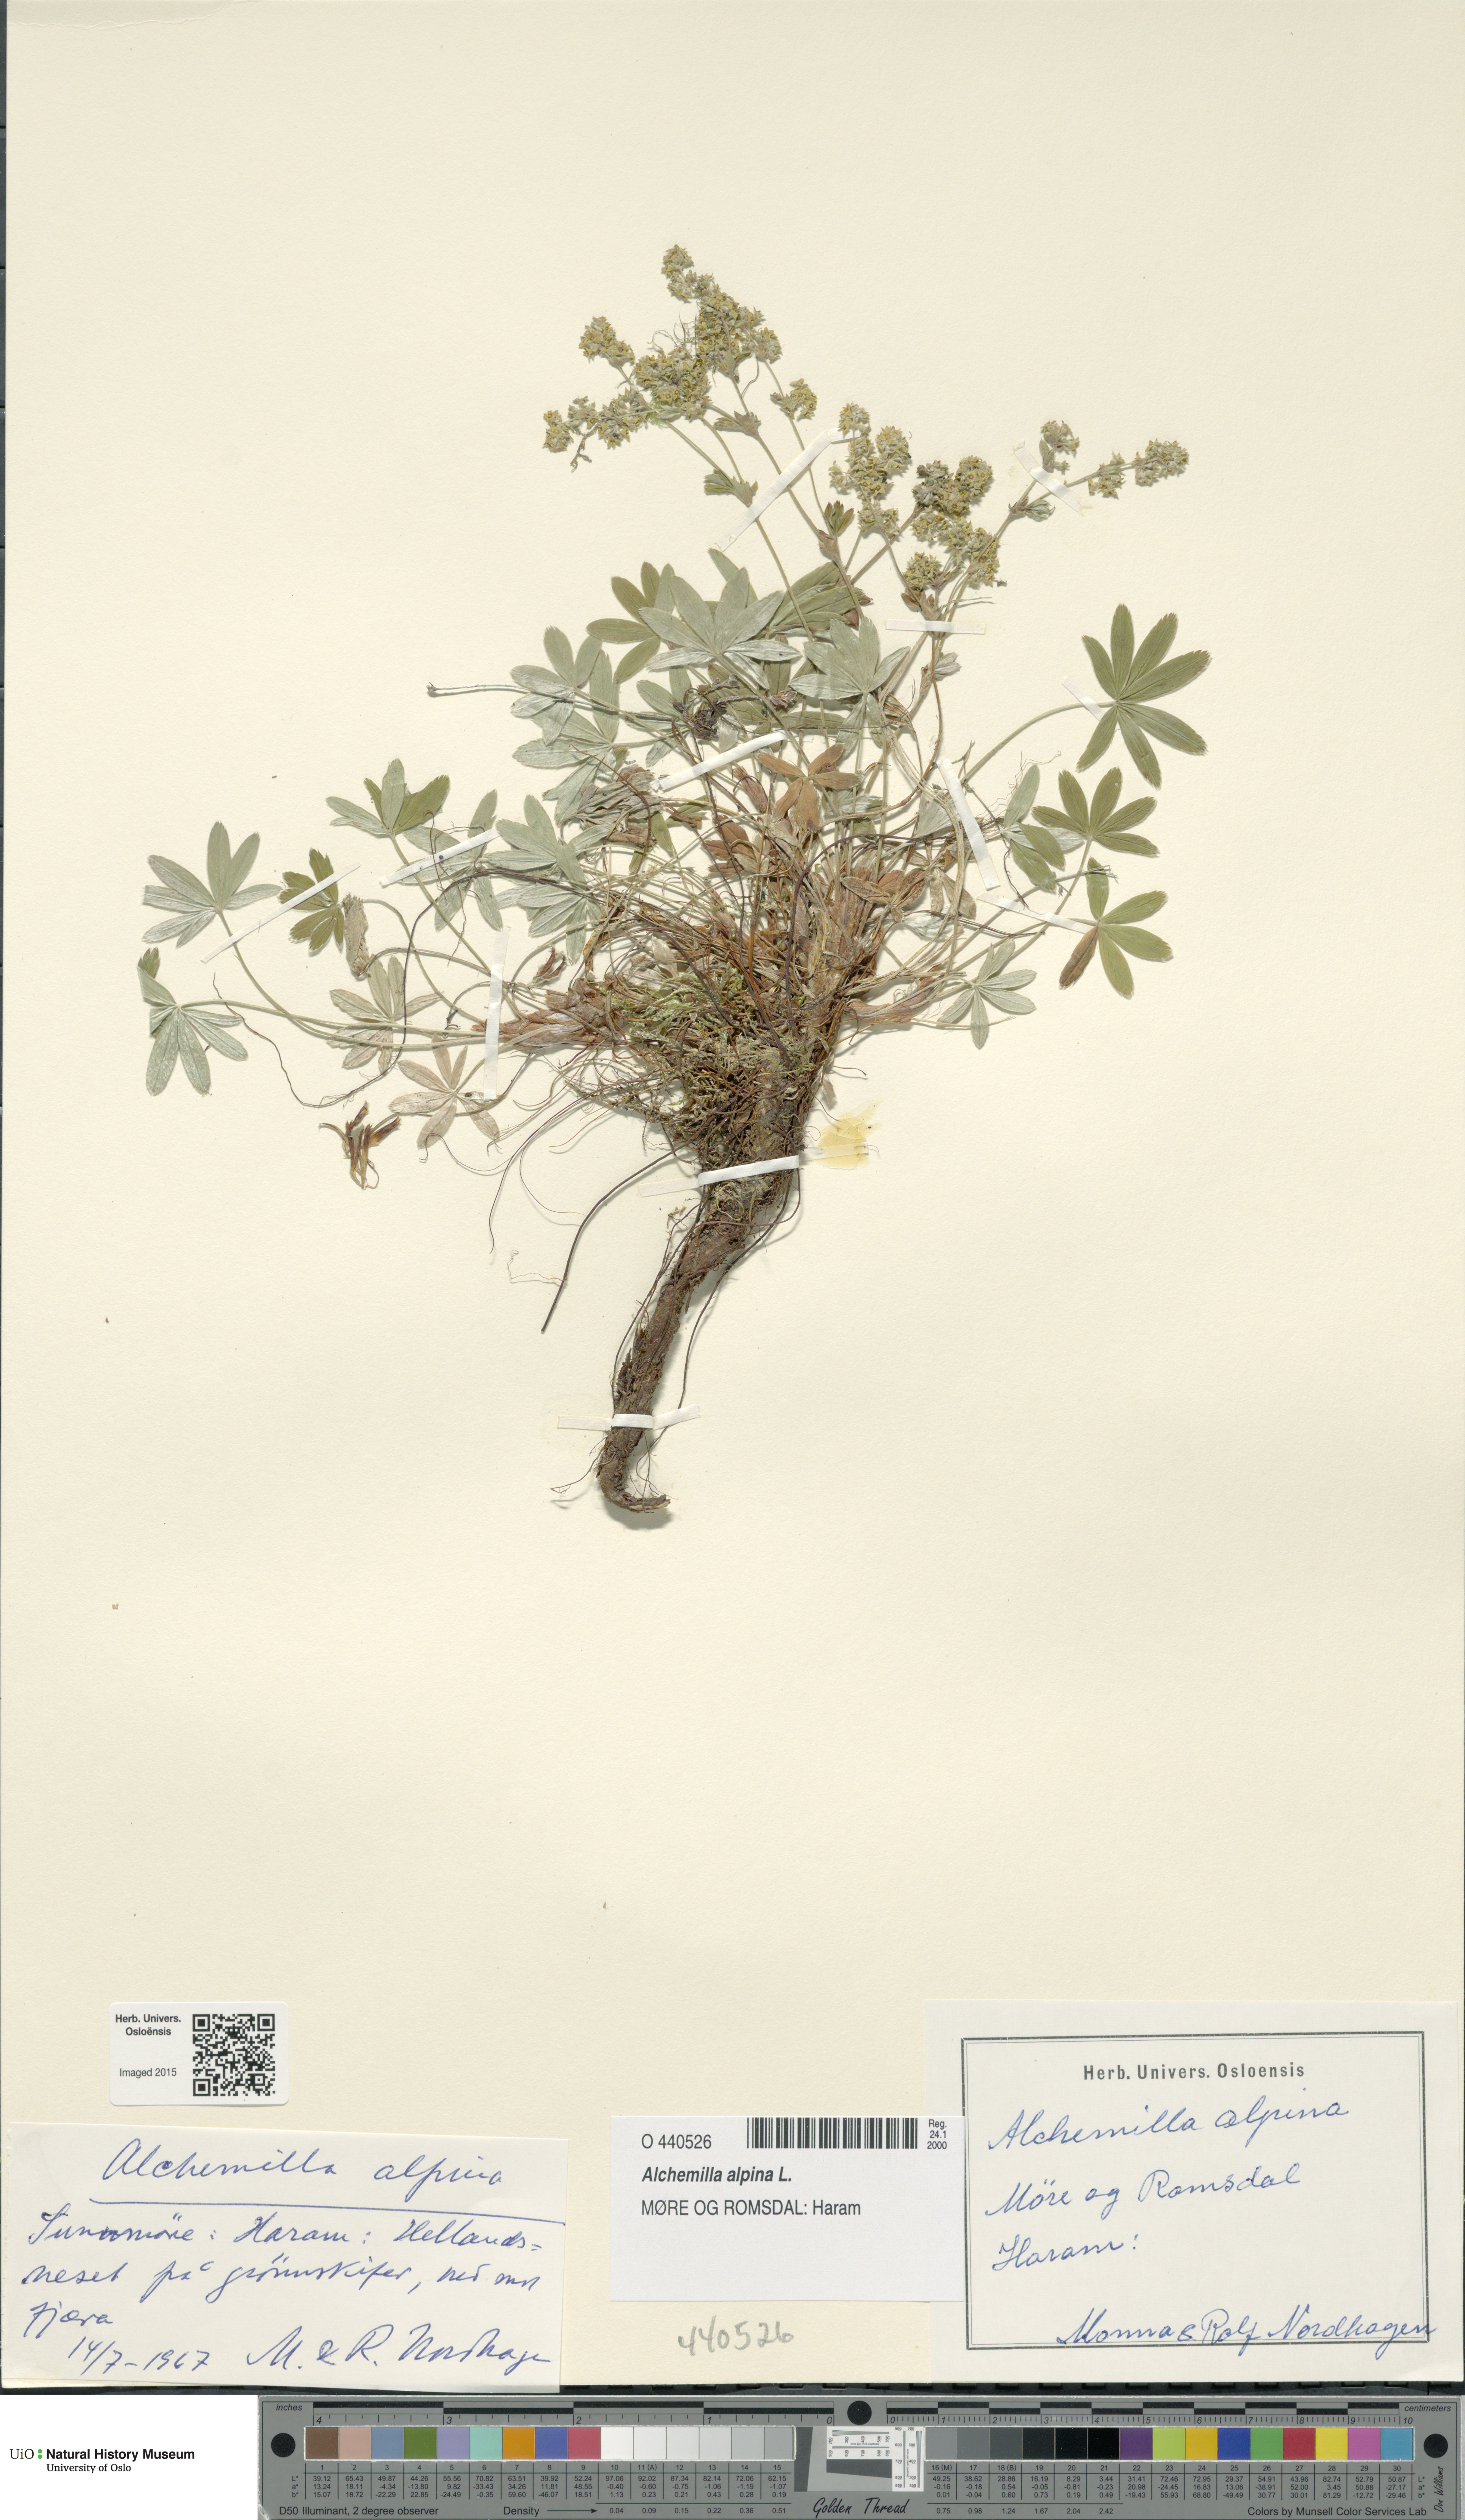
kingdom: Plantae
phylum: Tracheophyta
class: Magnoliopsida
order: Rosales
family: Rosaceae
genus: Alchemilla
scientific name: Alchemilla alpina
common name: Alpine lady's-mantle
